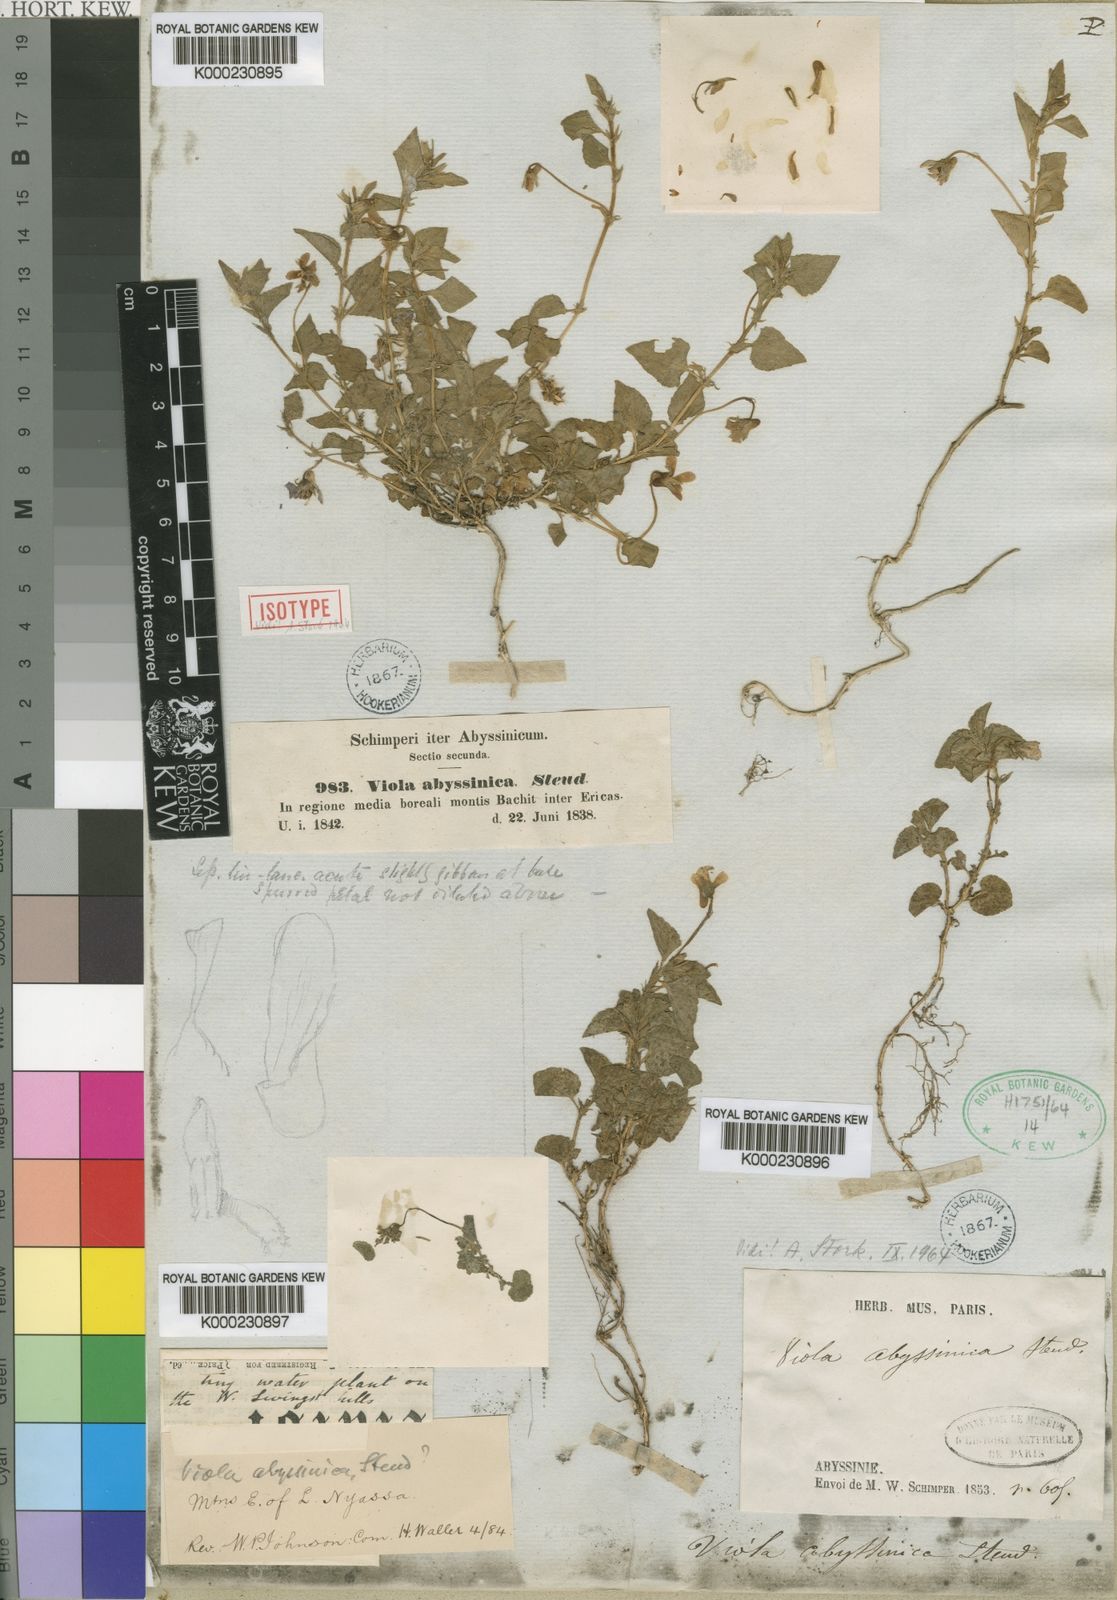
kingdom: Plantae
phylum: Tracheophyta
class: Magnoliopsida
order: Malpighiales
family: Violaceae
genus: Viola
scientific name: Viola abyssinica
